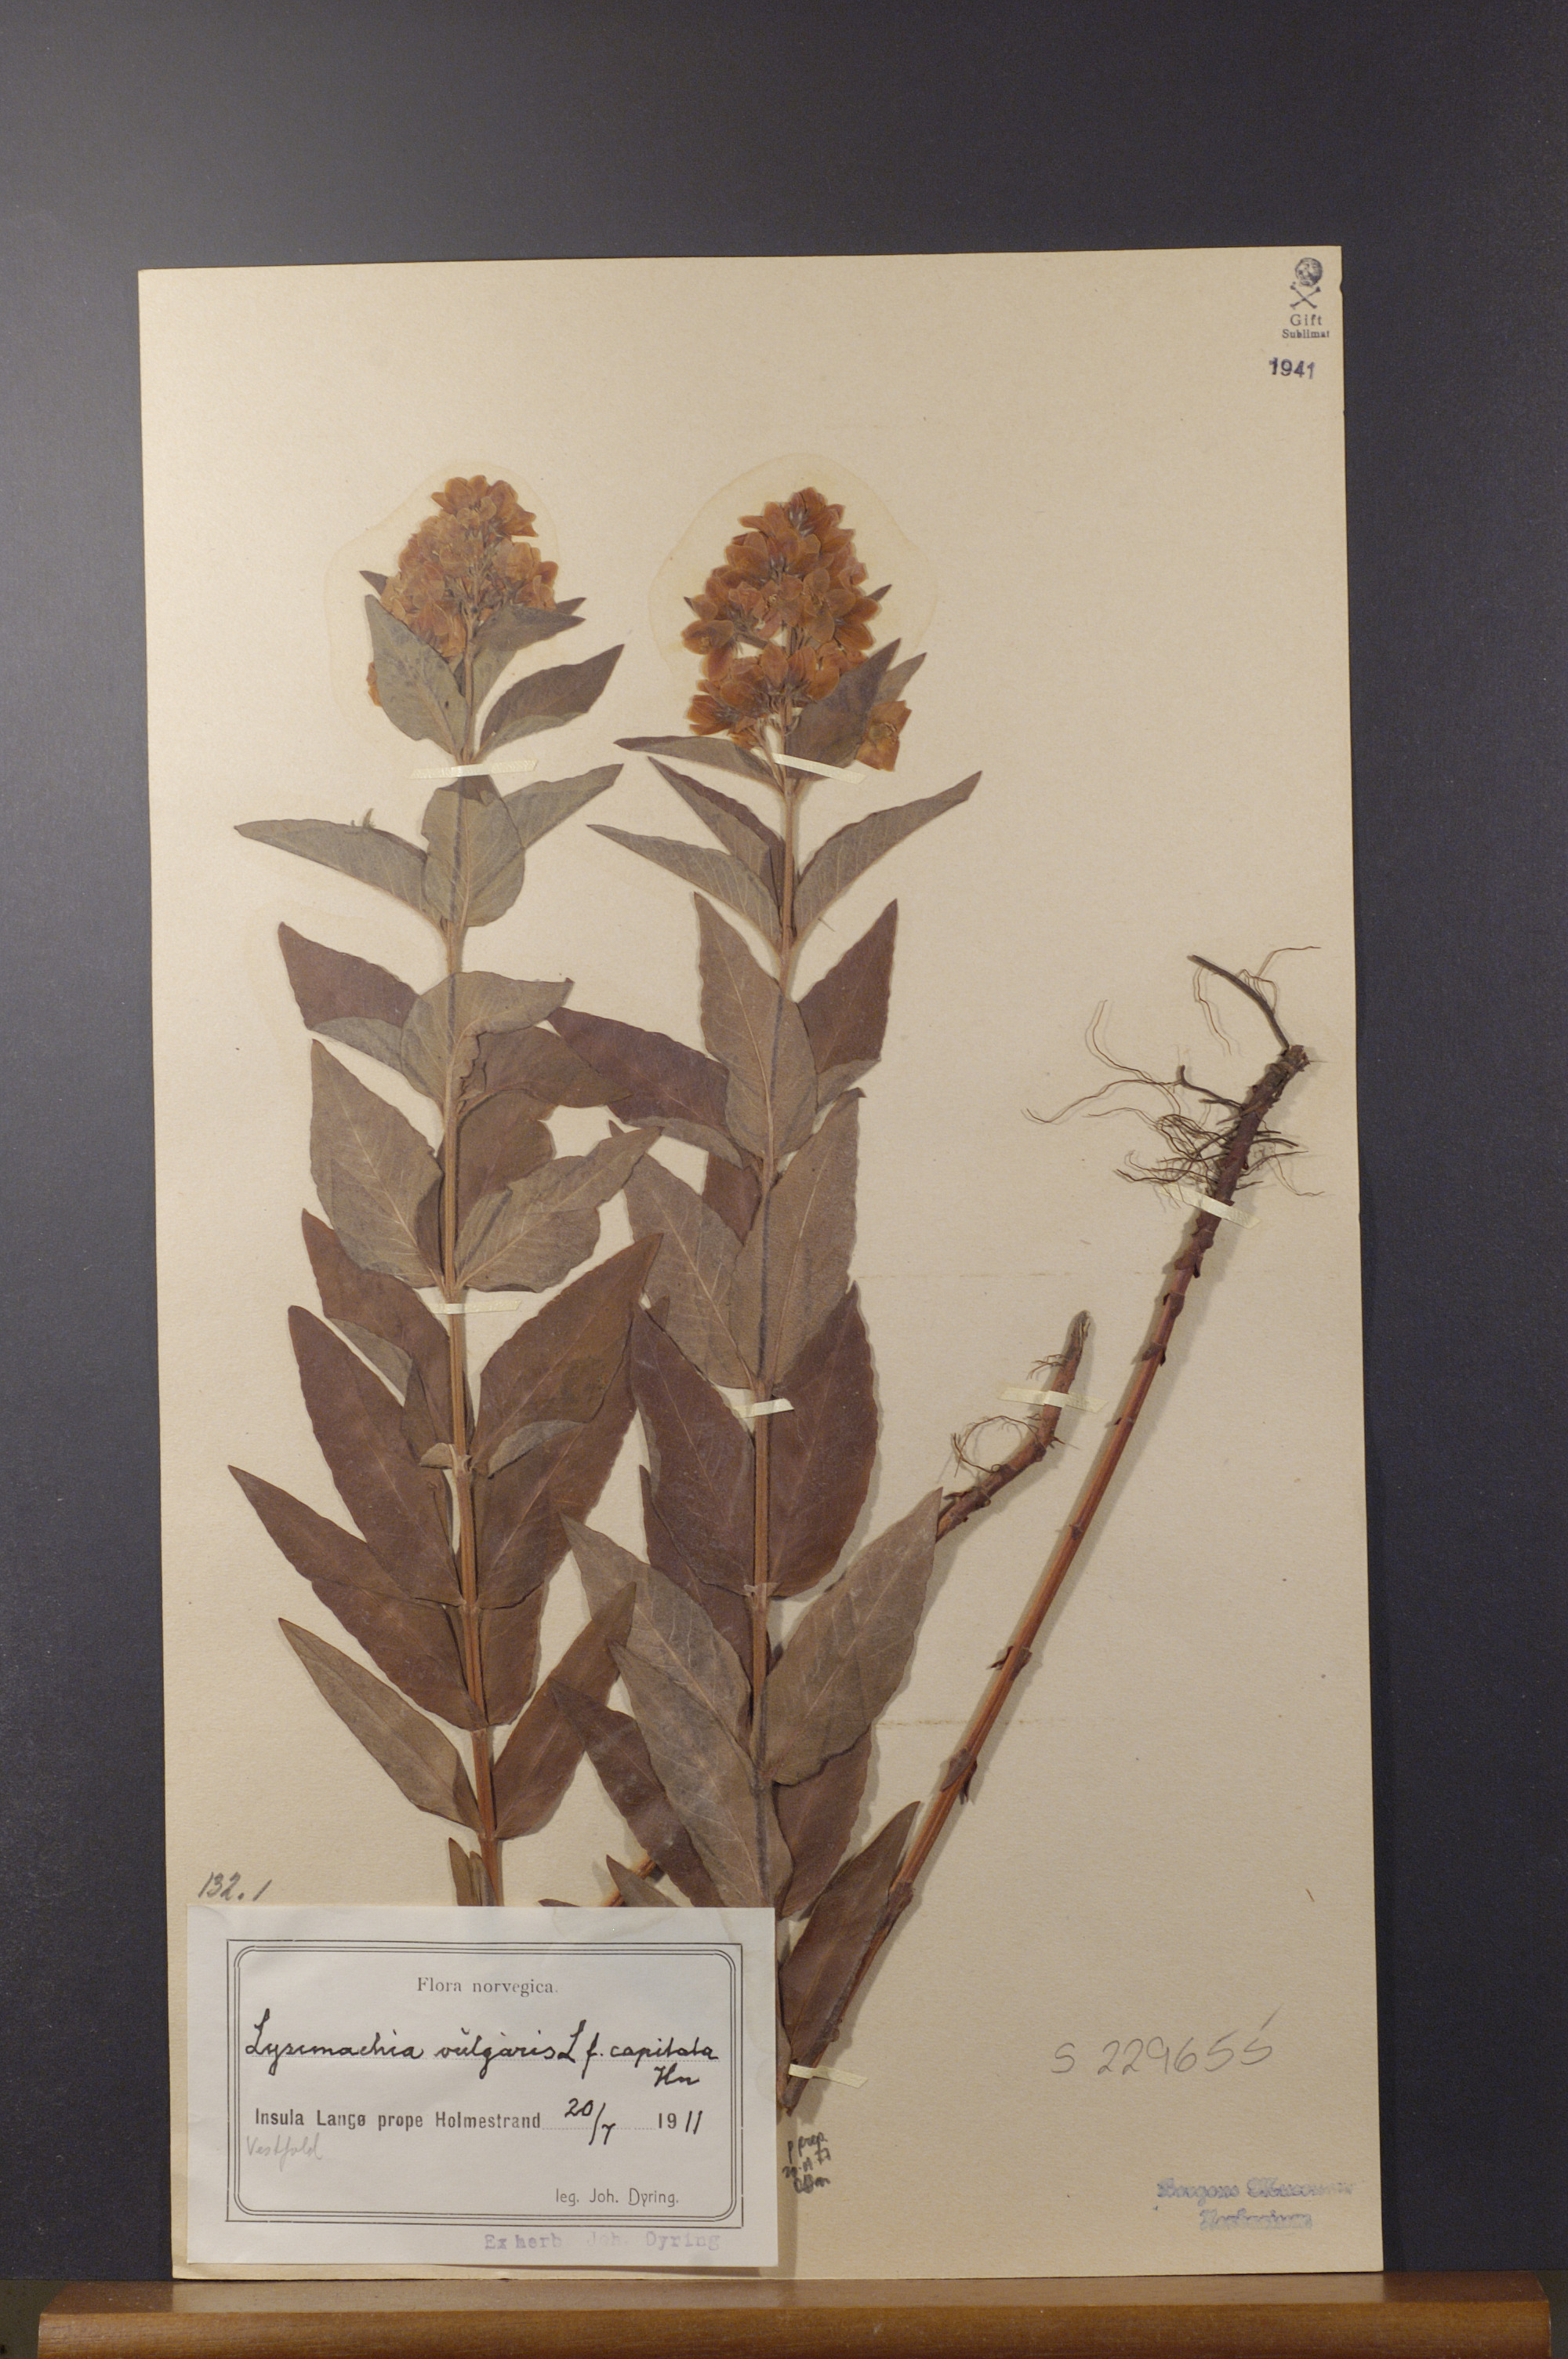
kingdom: Plantae
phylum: Tracheophyta
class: Magnoliopsida
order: Ericales
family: Primulaceae
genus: Lysimachia
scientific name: Lysimachia vulgaris
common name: Yellow loosestrife
